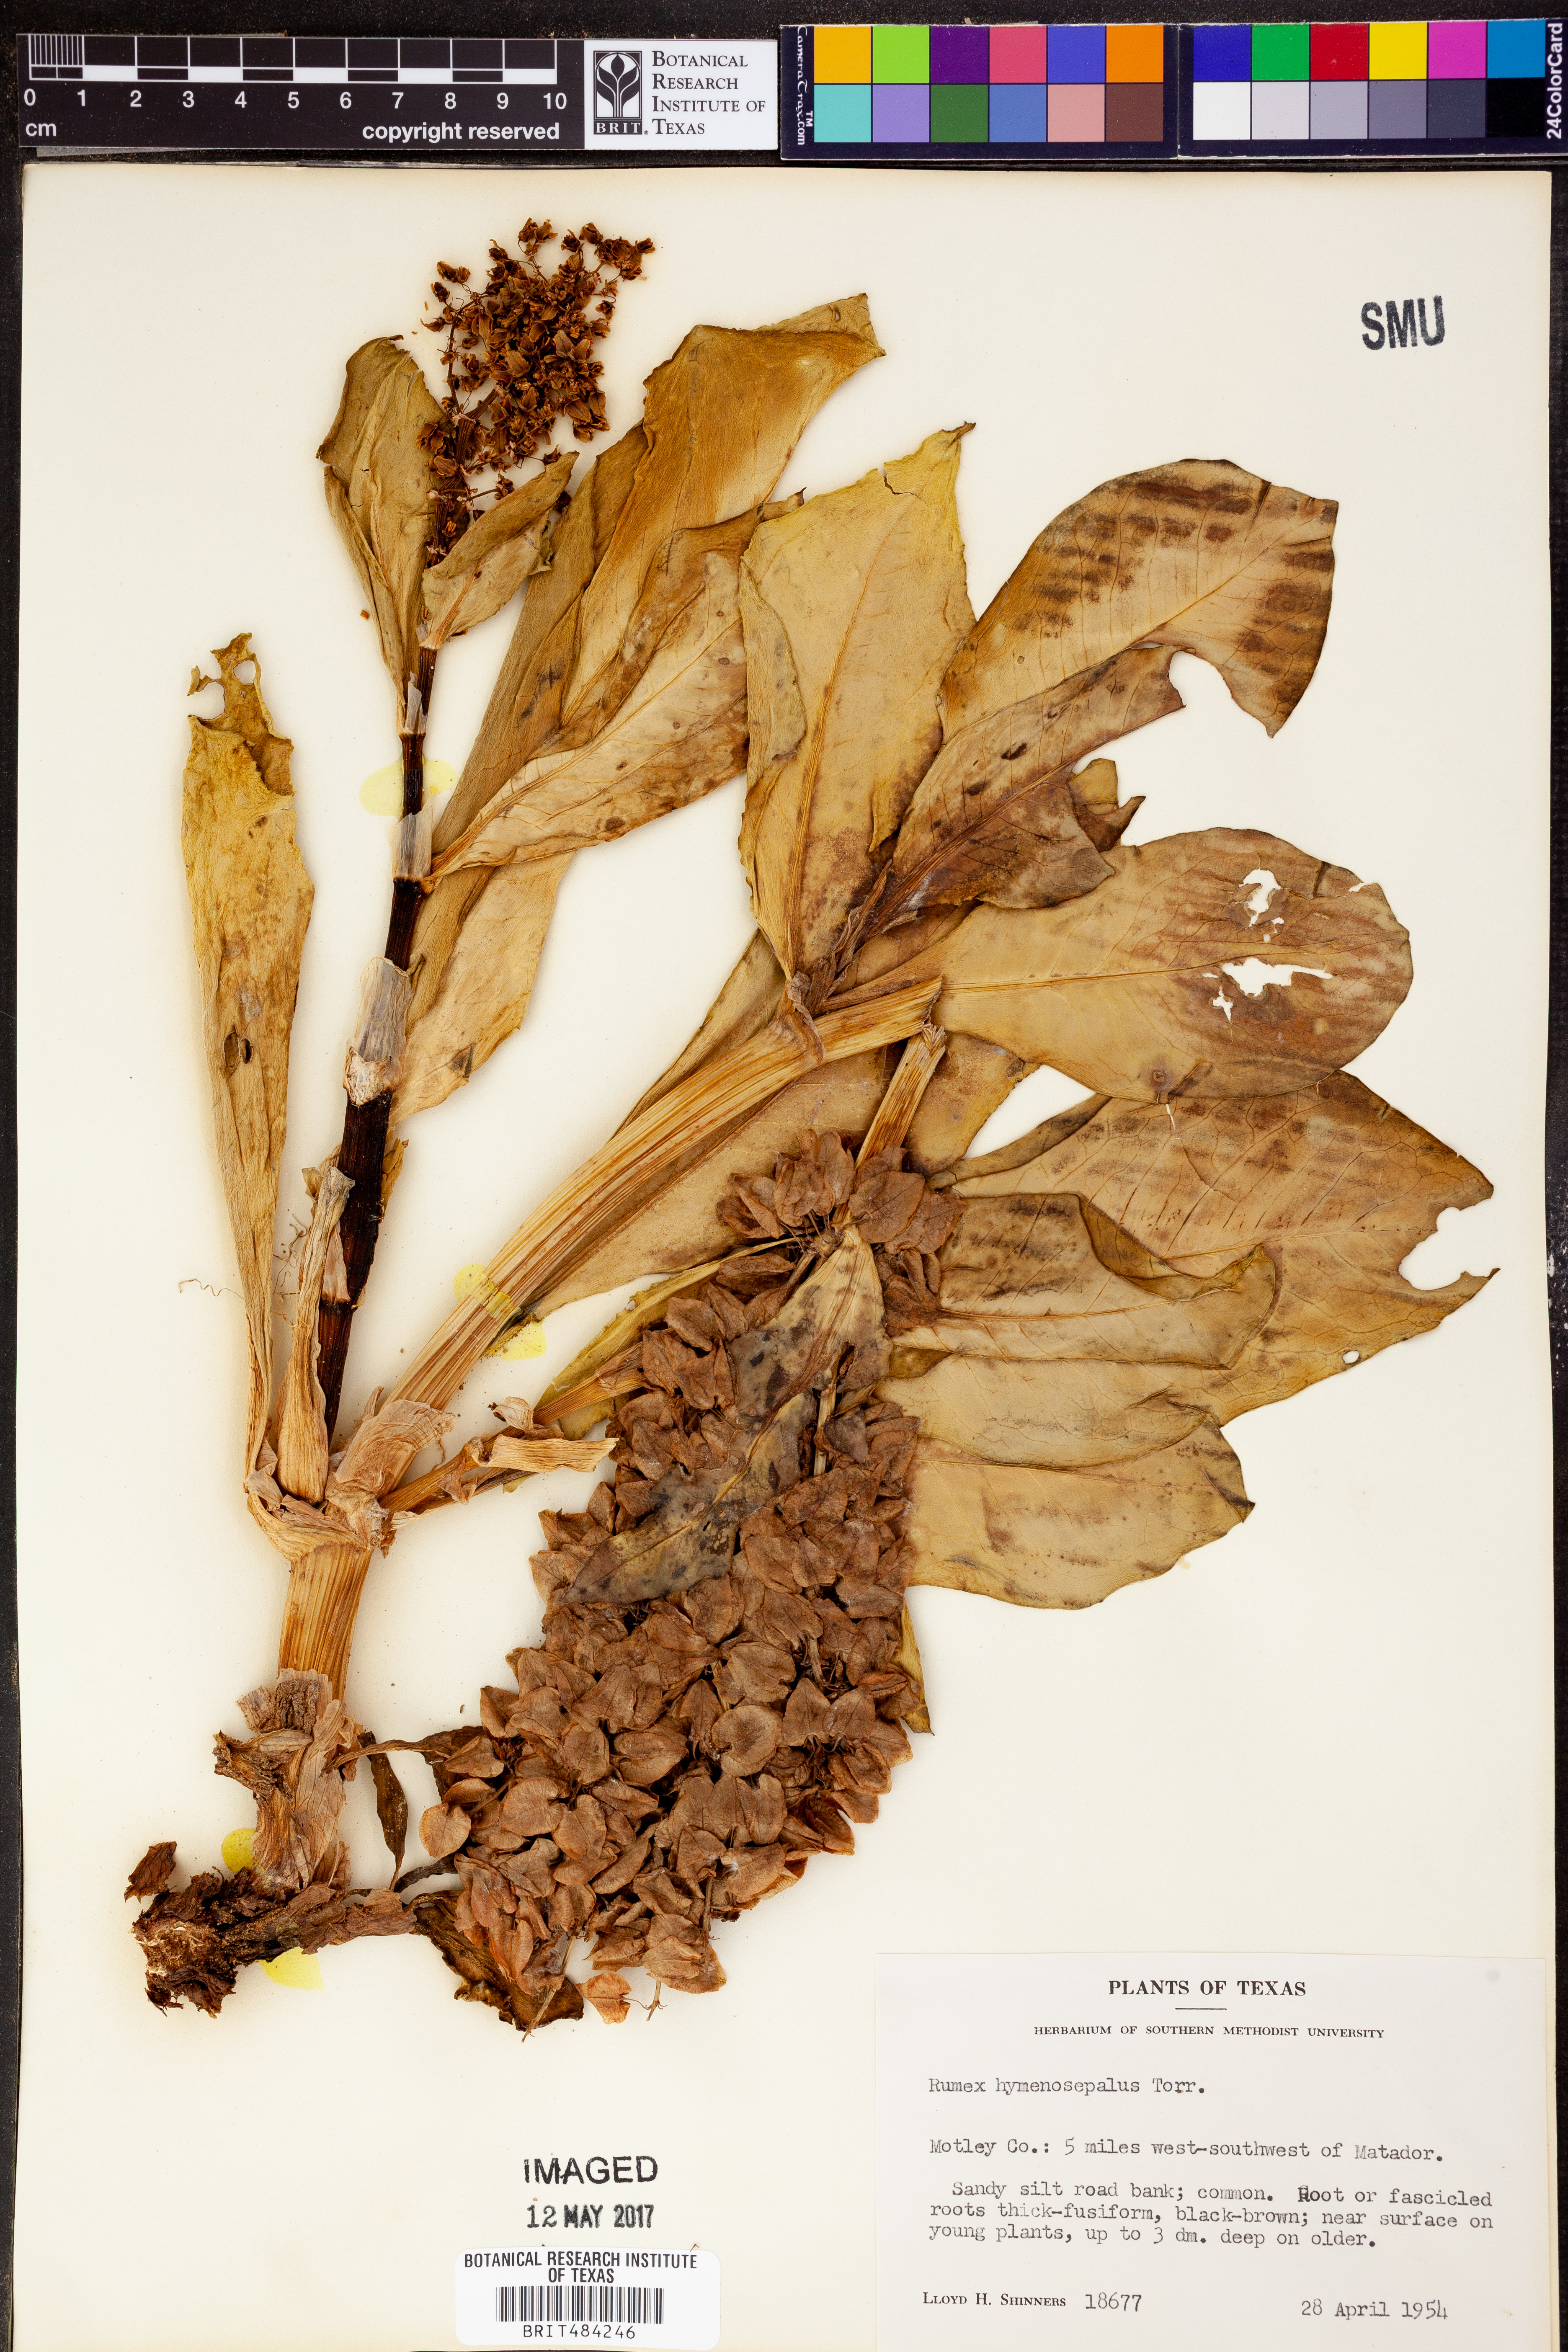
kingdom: Plantae
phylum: Tracheophyta
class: Magnoliopsida
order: Caryophyllales
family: Polygonaceae
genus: Rumex
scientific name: Rumex hymenosepalus
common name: Ganagra
